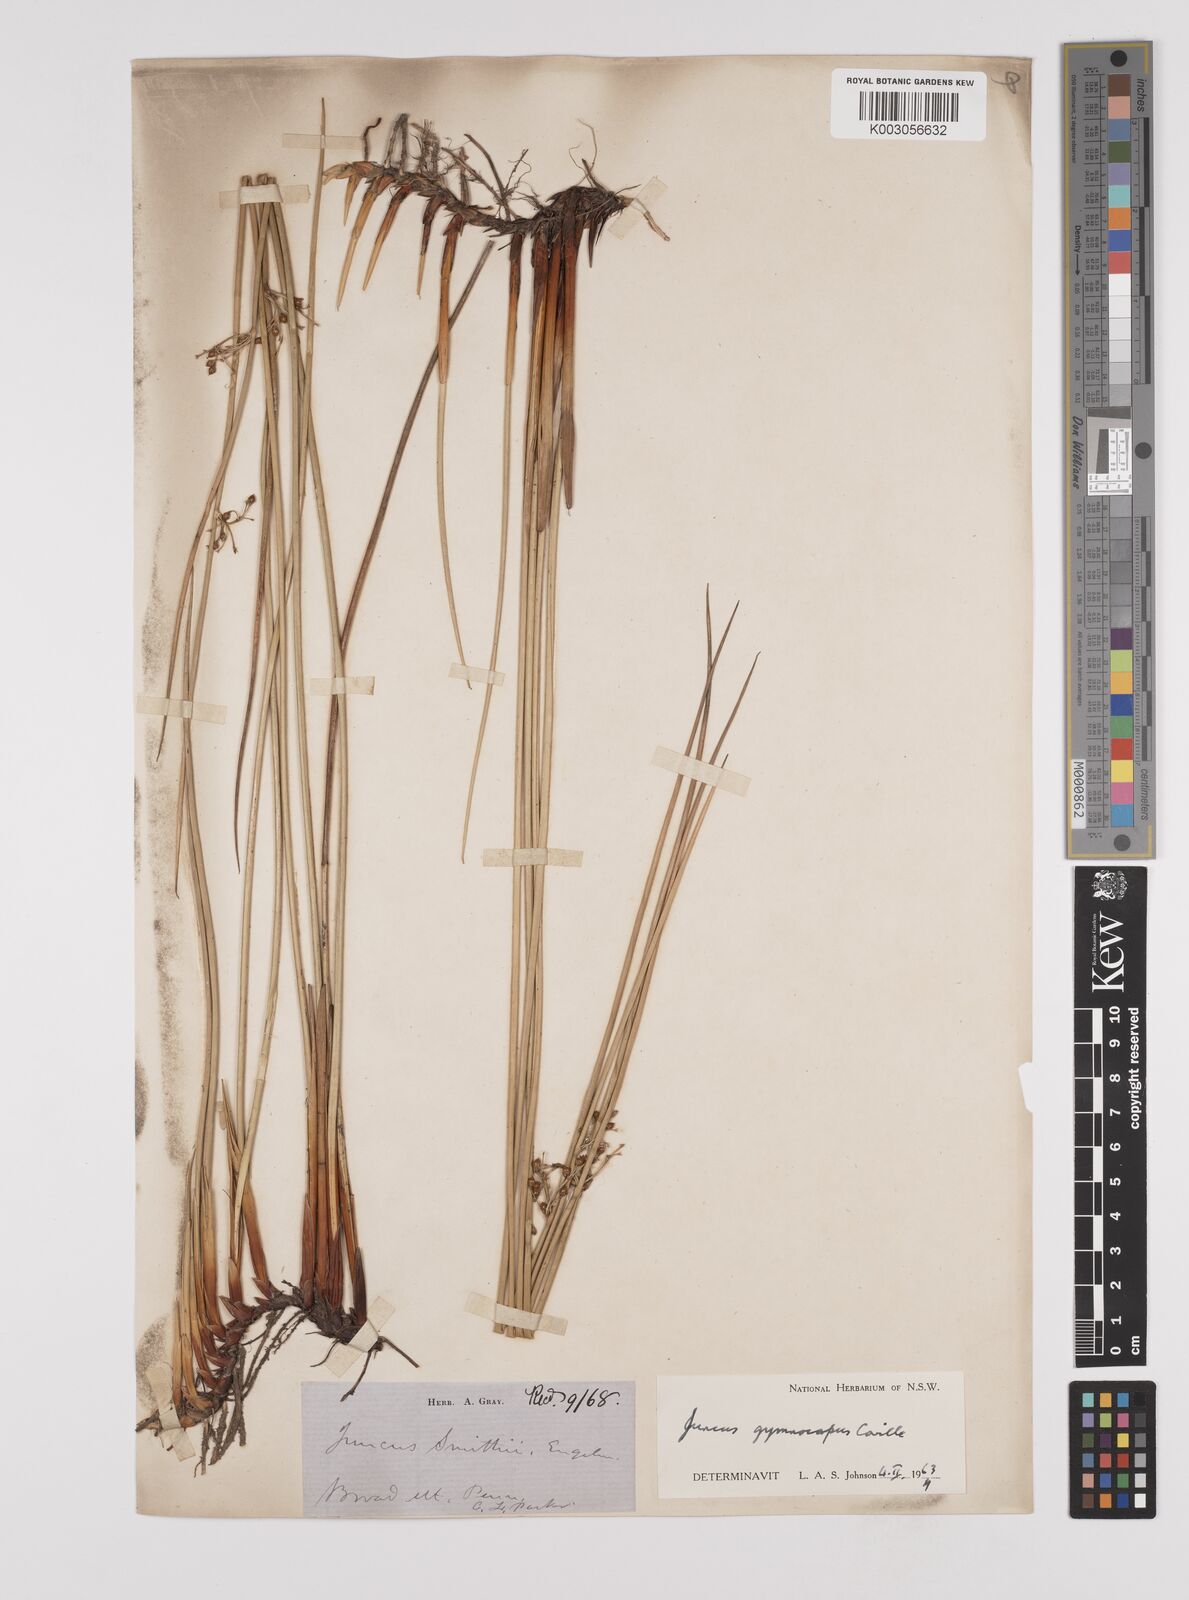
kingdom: Plantae
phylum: Tracheophyta
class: Liliopsida
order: Poales
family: Juncaceae
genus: Juncus
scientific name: Juncus gymnocarpus
